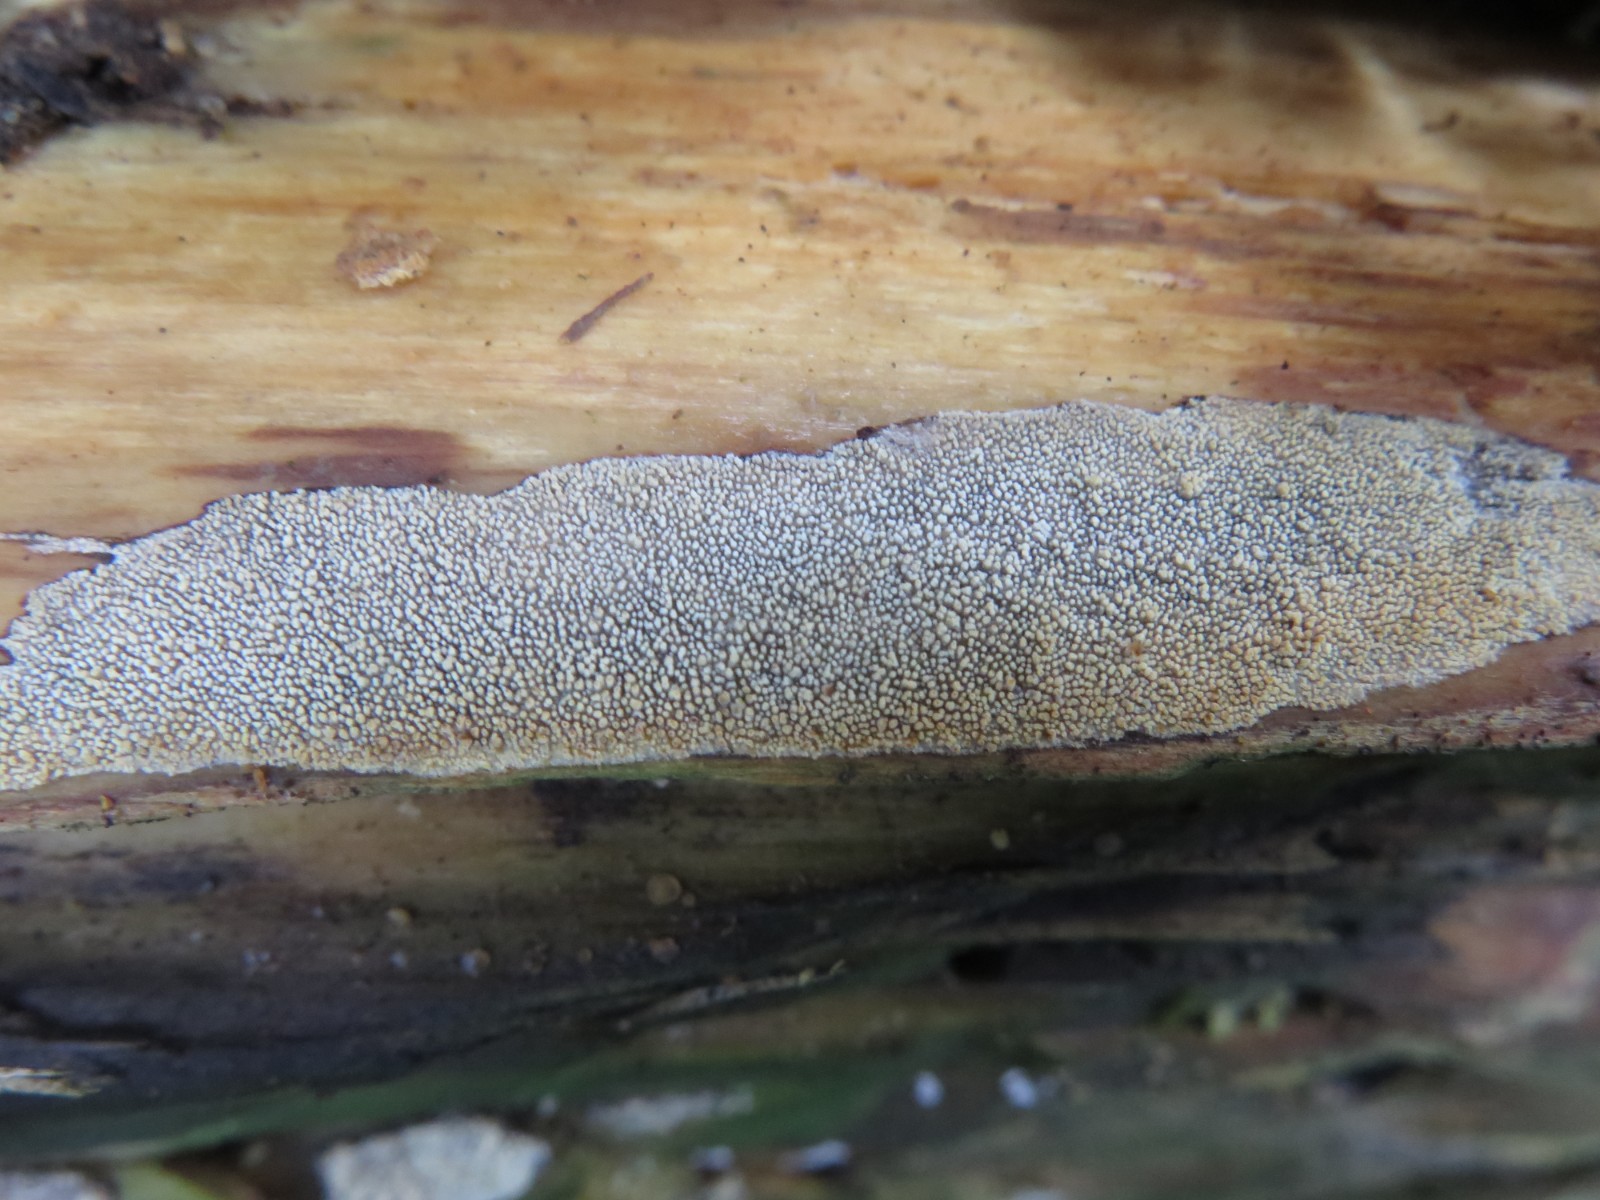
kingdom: Fungi
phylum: Basidiomycota
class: Agaricomycetes
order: Hymenochaetales
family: Rickenellaceae
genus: Resinicium
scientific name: Resinicium bicolor
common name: almindelig vokstand
